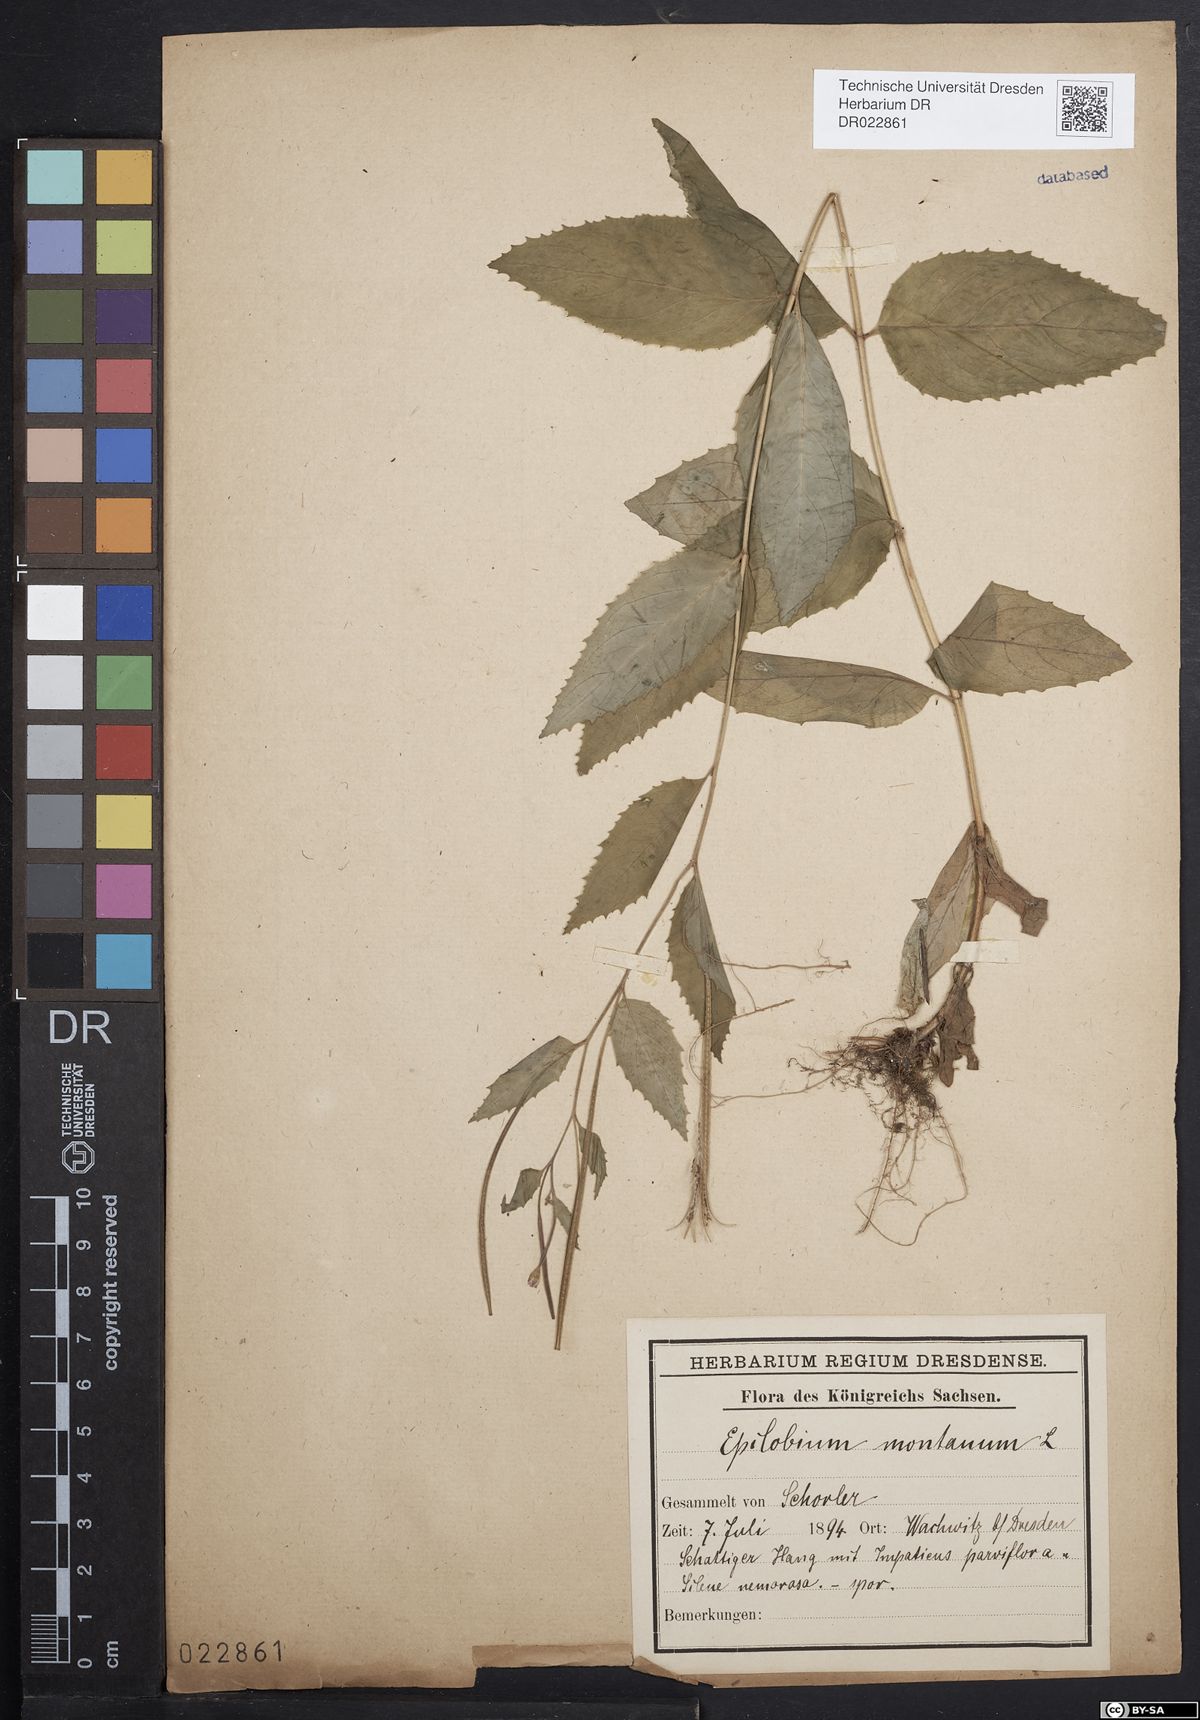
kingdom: Plantae
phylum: Tracheophyta
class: Magnoliopsida
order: Myrtales
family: Onagraceae
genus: Epilobium
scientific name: Epilobium montanum
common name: Broad-leaved willowherb
